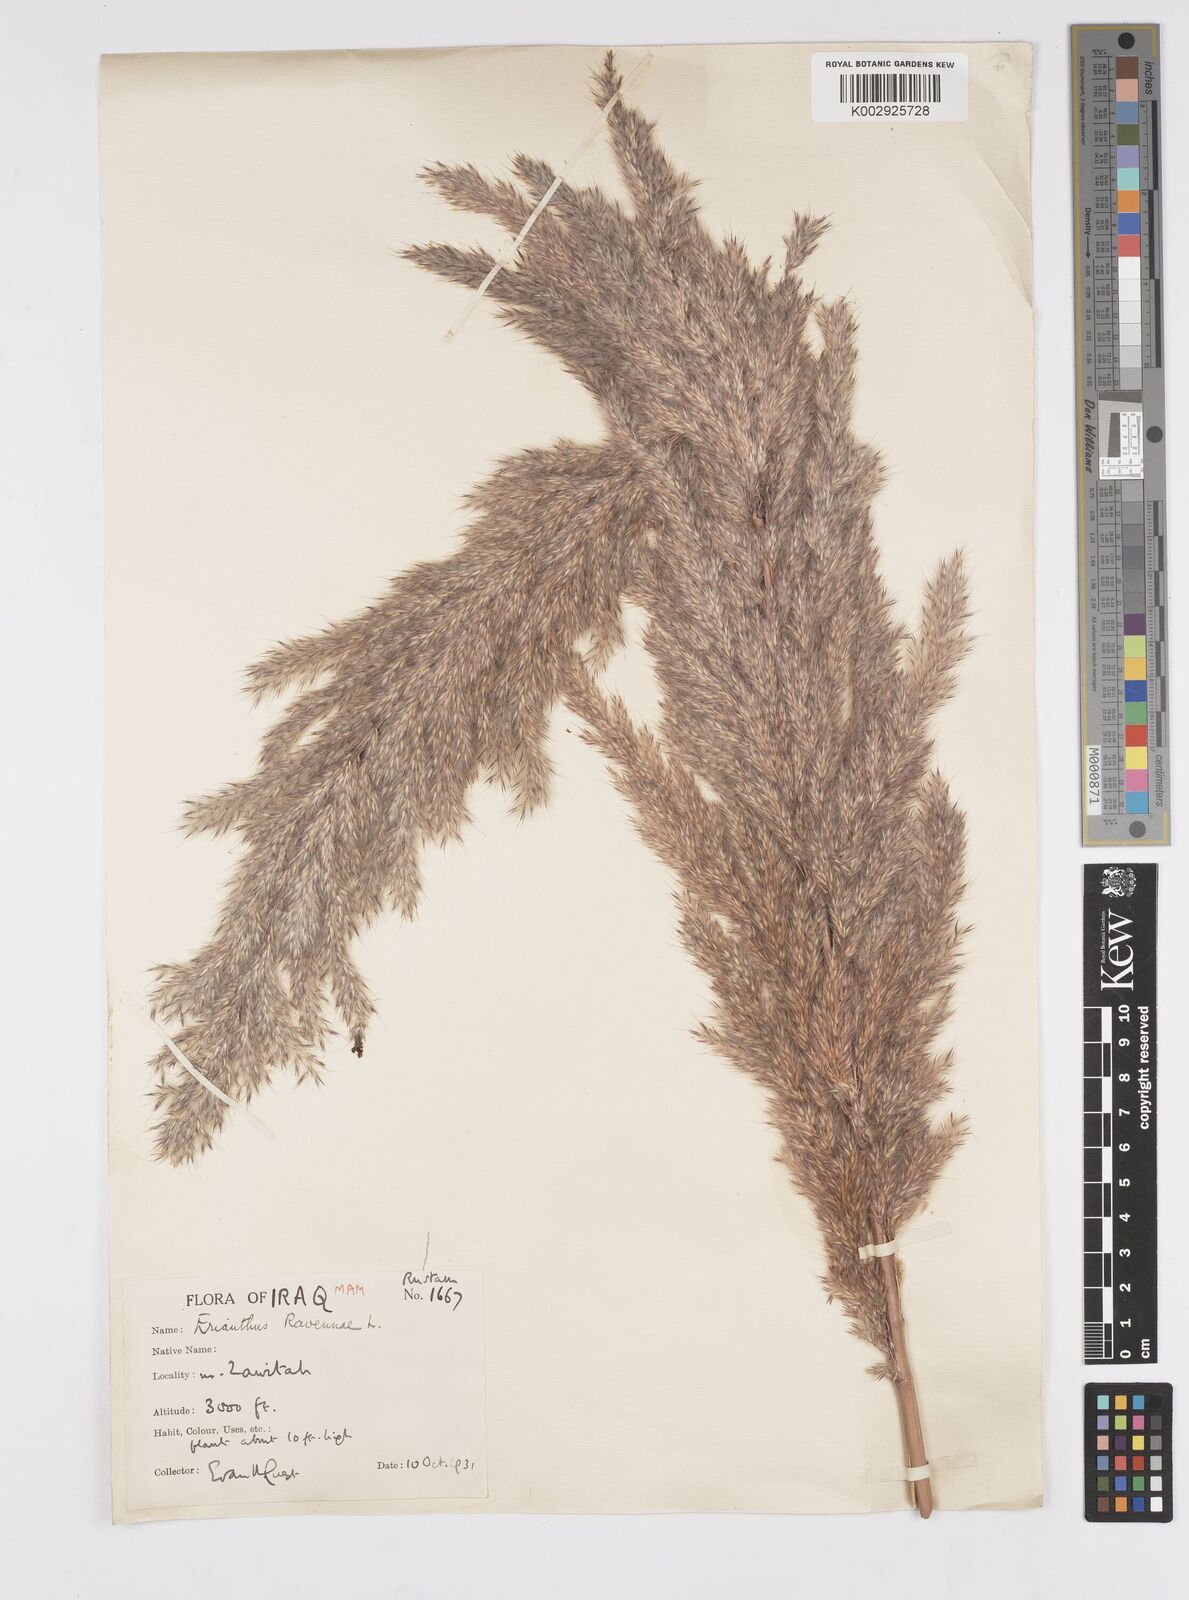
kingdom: Plantae
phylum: Tracheophyta
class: Liliopsida
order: Poales
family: Poaceae
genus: Tripidium
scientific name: Tripidium ravennae
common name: Ravenna grass
